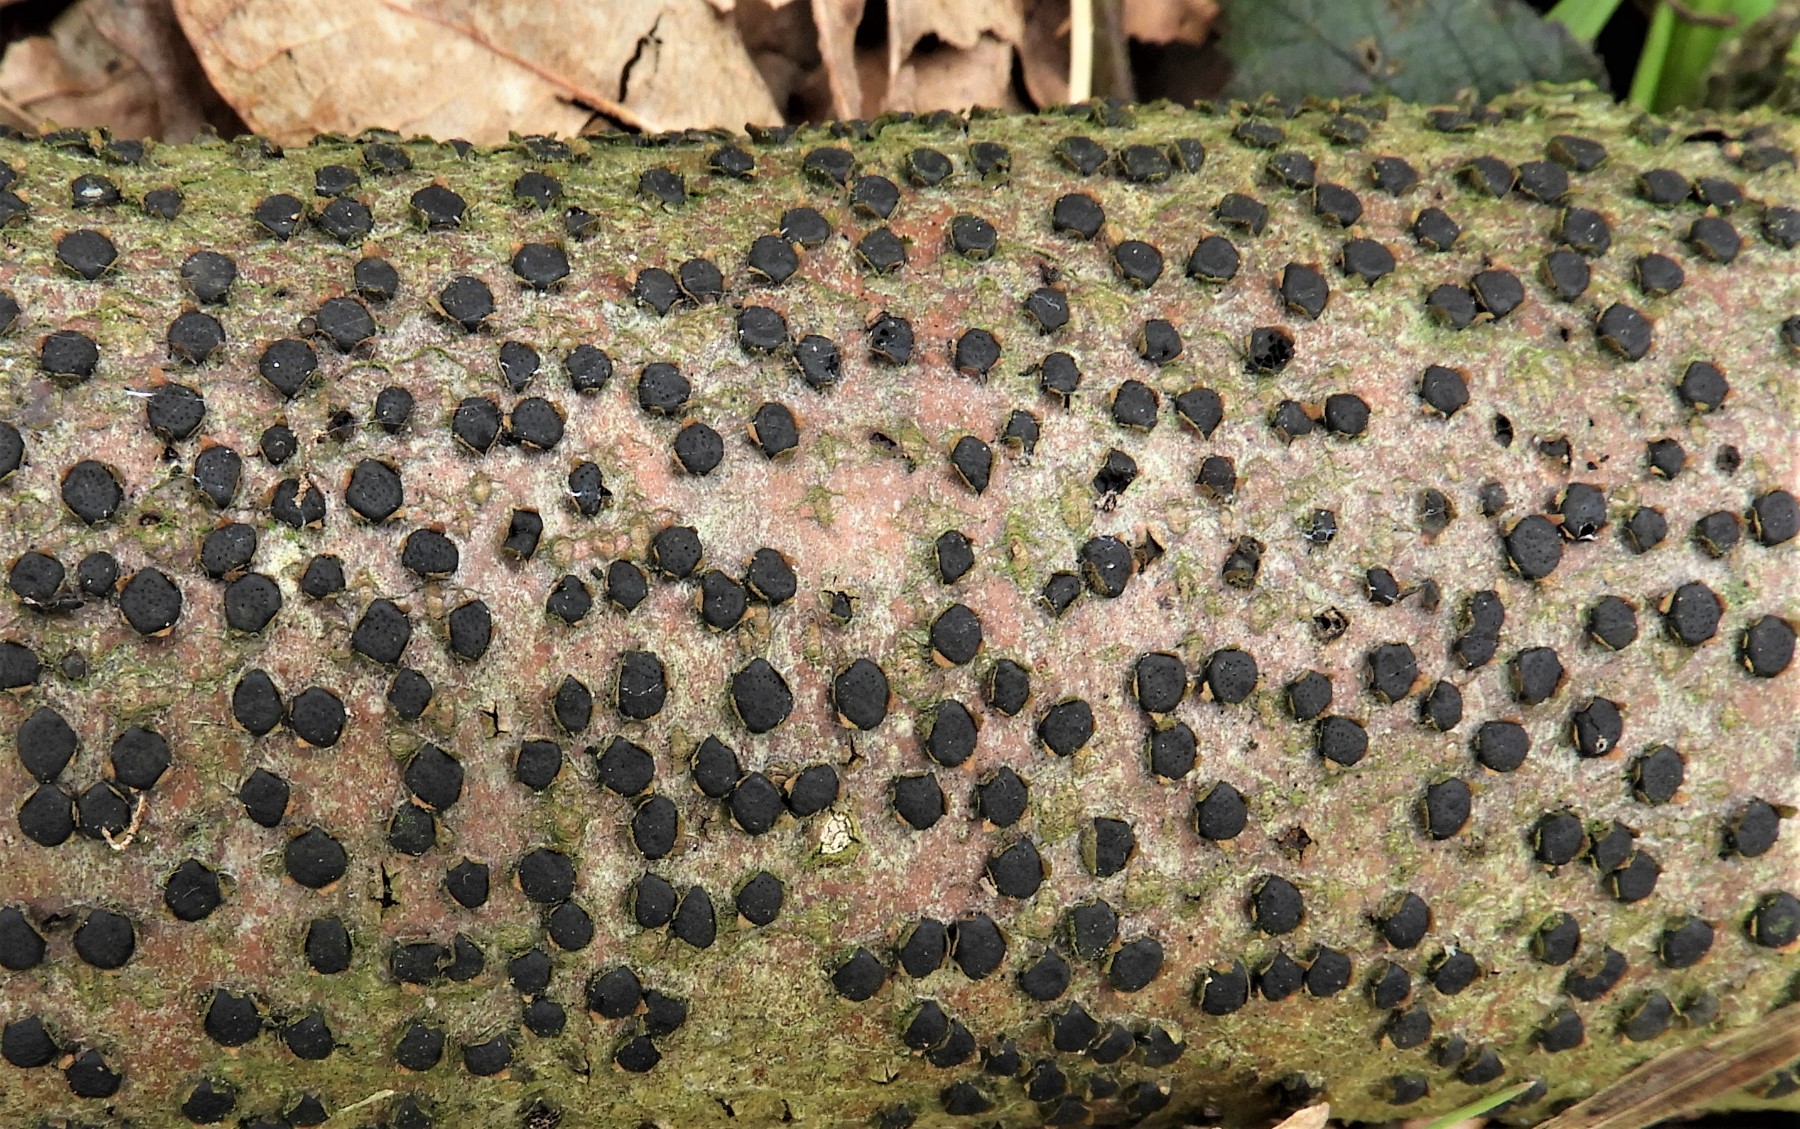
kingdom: Fungi
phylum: Ascomycota
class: Sordariomycetes
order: Xylariales
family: Diatrypaceae
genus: Diatrype
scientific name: Diatrype disciformis
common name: kant-kulskorpe
